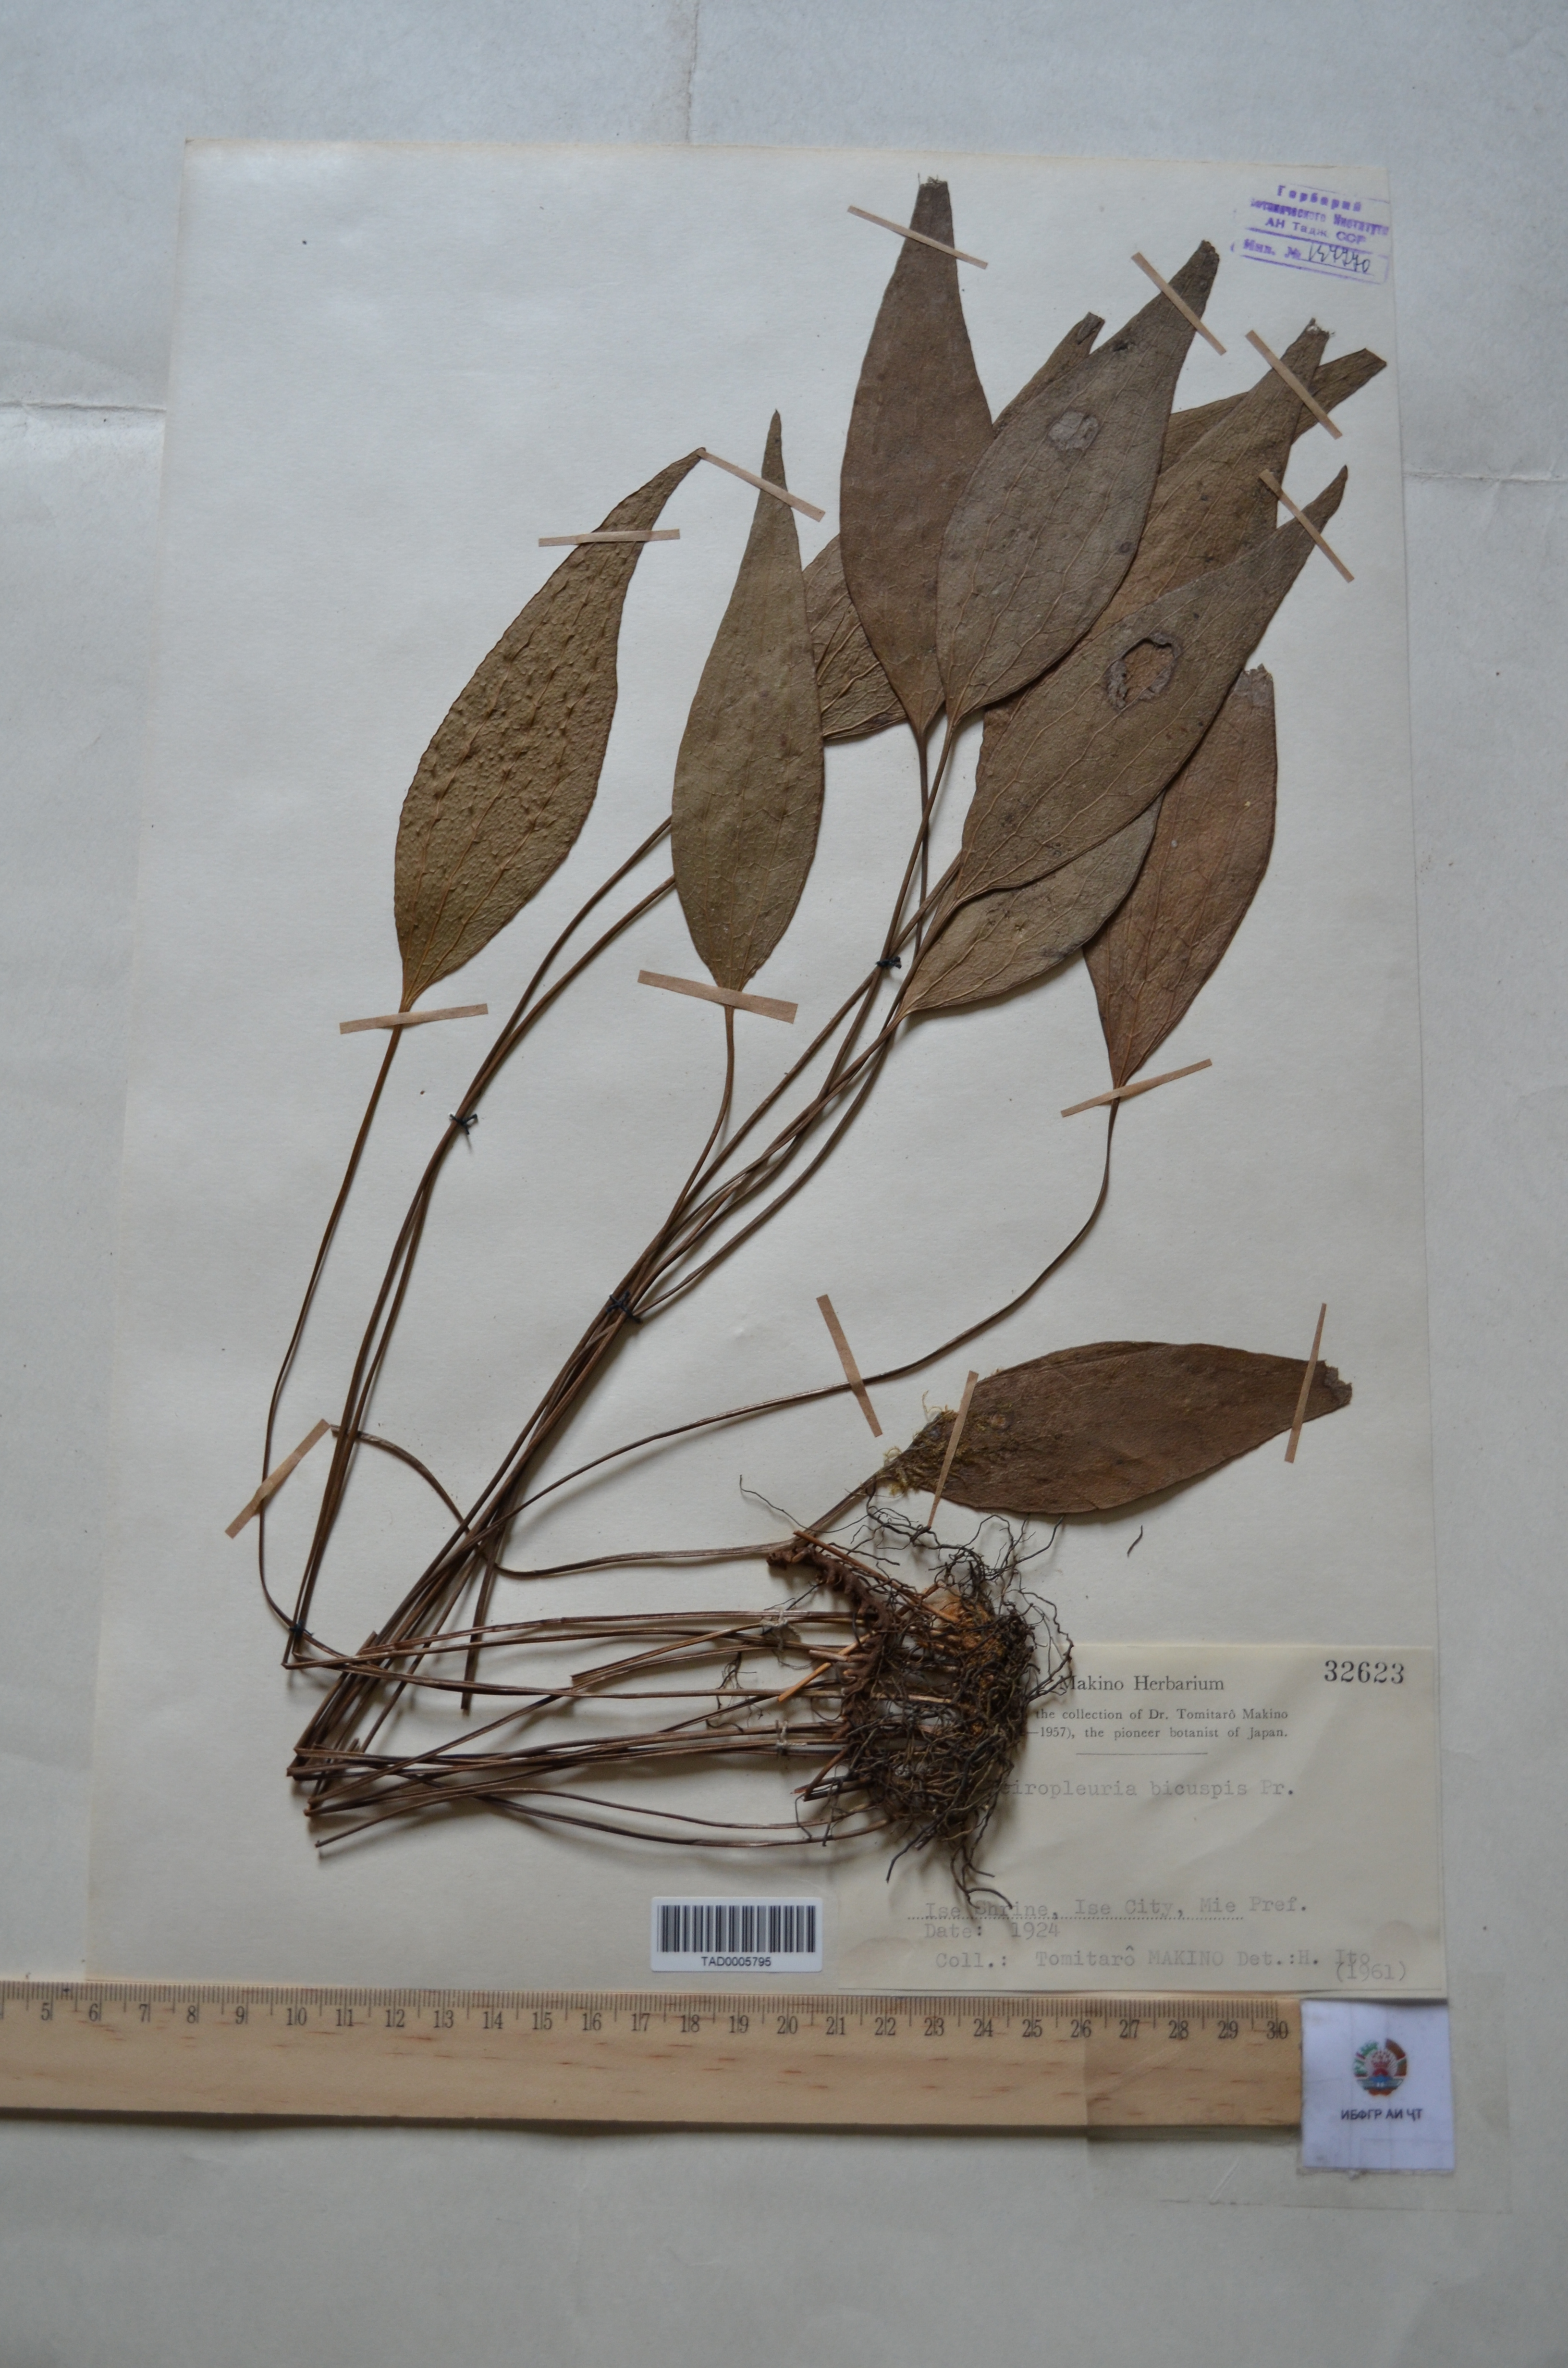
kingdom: Plantae
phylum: Tracheophyta
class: Polypodiopsida
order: Gleicheniales
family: Dipteridaceae
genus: Cheiropleuria
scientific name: Cheiropleuria bicuspis
